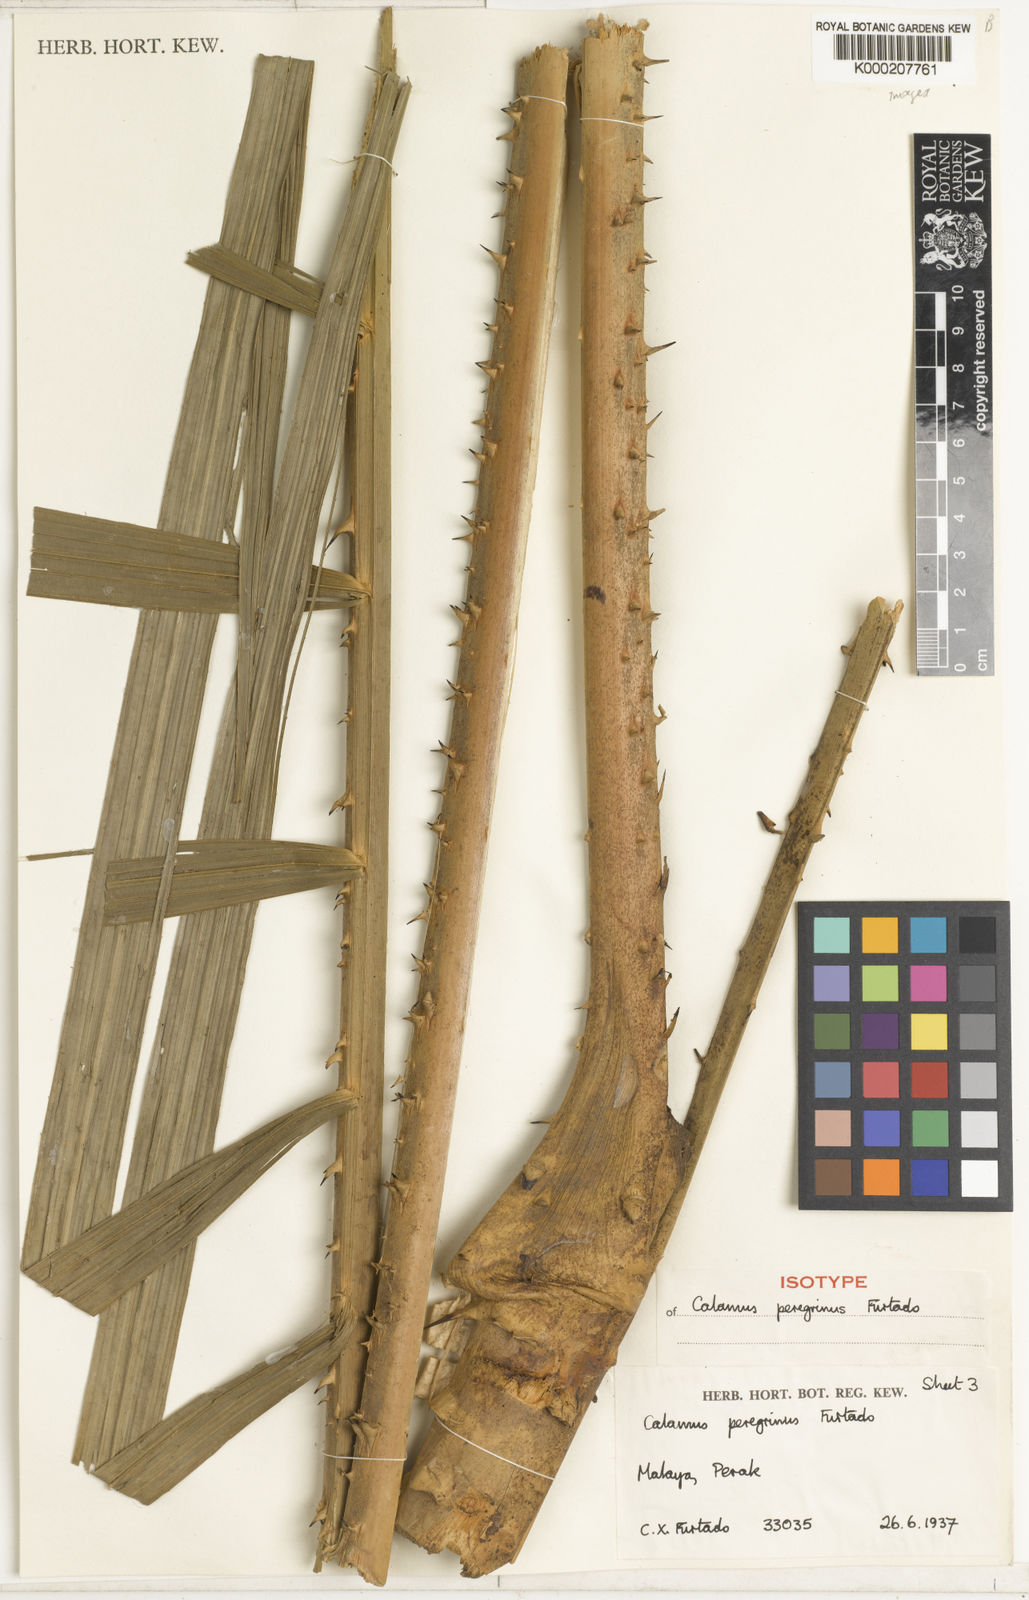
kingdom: Plantae
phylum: Tracheophyta
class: Liliopsida
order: Arecales
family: Arecaceae
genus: Calamus
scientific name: Calamus peregrinus
